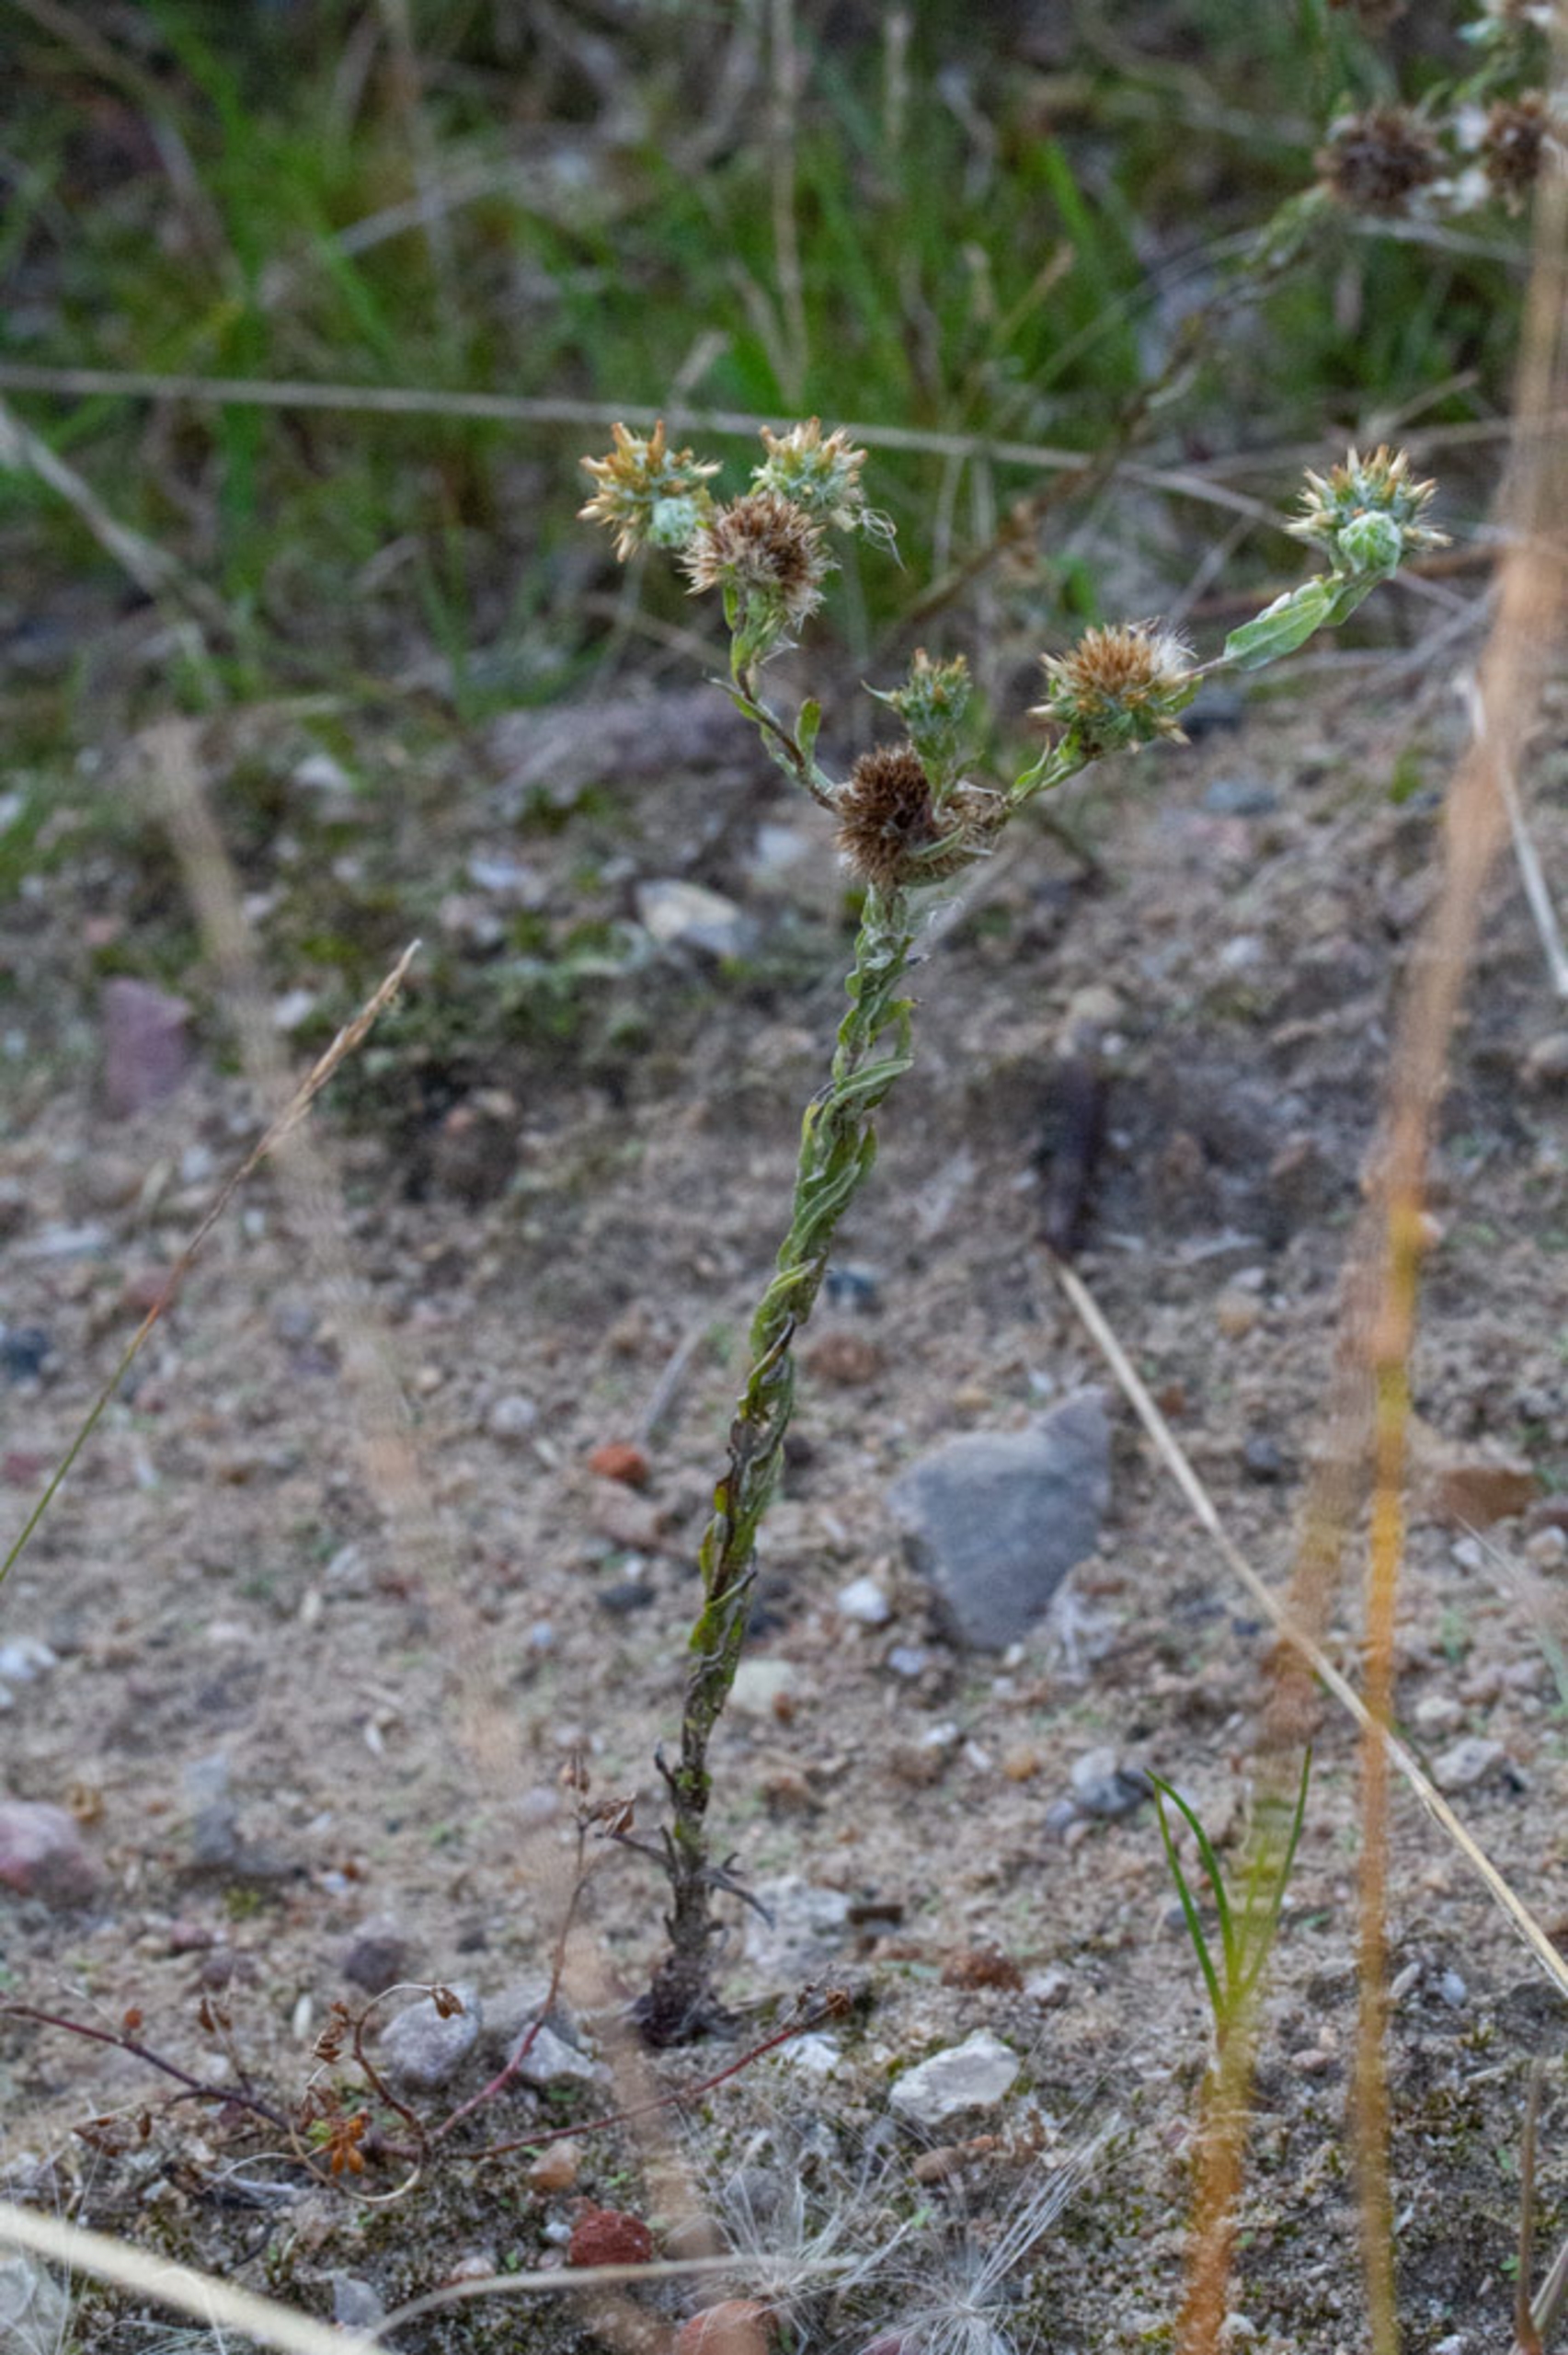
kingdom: Plantae
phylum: Tracheophyta
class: Magnoliopsida
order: Asterales
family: Asteraceae
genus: Filago
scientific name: Filago germanica
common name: Kugle-museurt
